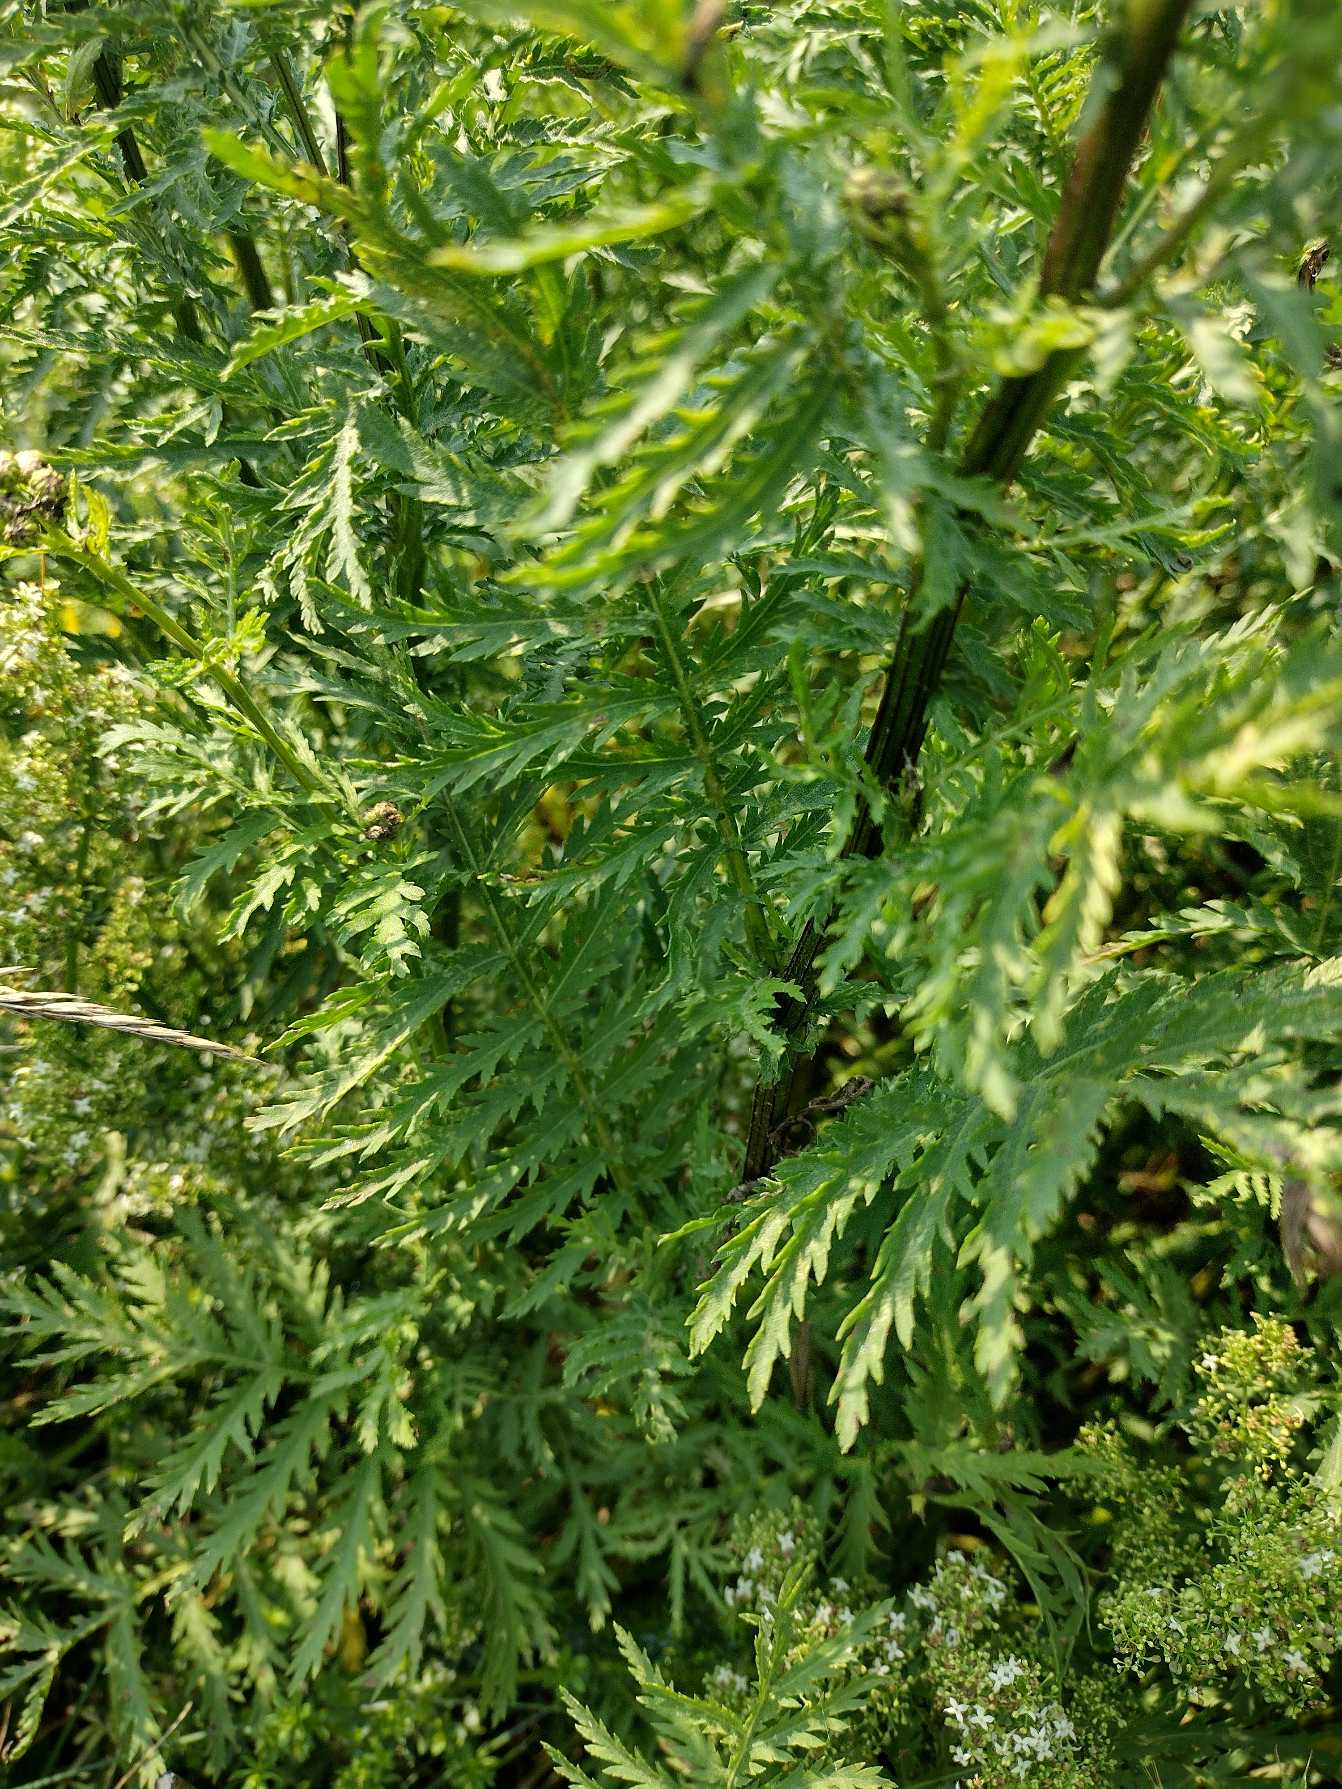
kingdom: Plantae
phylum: Tracheophyta
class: Magnoliopsida
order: Asterales
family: Asteraceae
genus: Tanacetum
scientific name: Tanacetum vulgare
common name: Rejnfan
